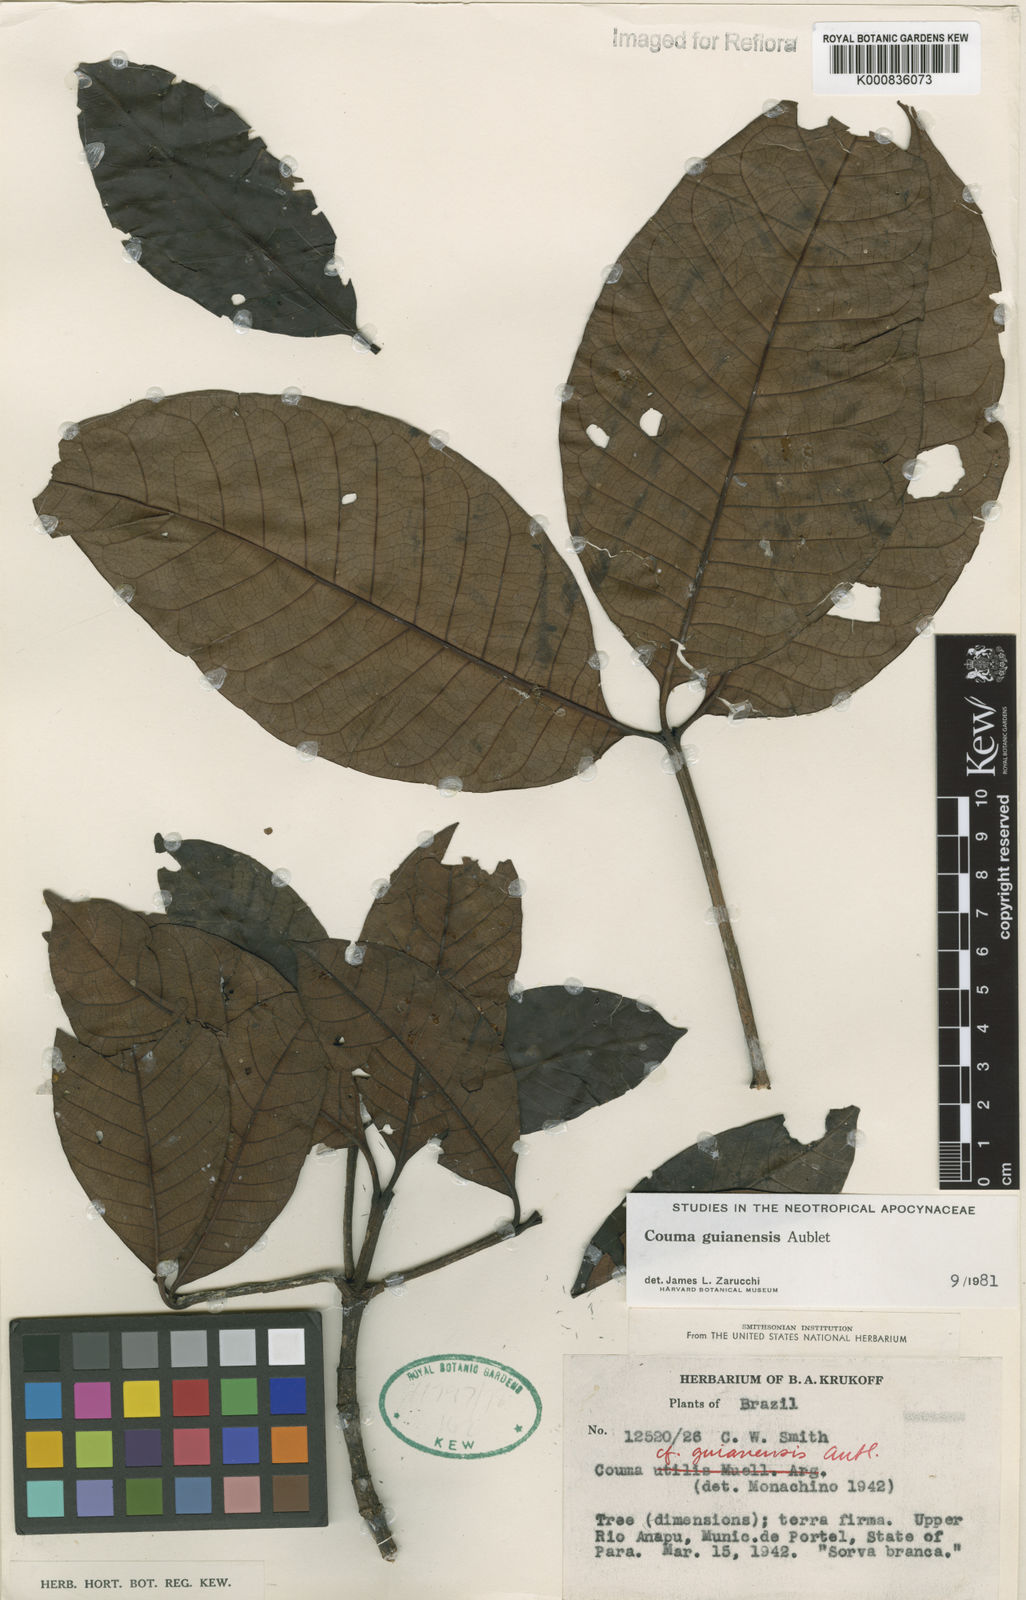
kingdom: Plantae
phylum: Tracheophyta
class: Magnoliopsida
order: Gentianales
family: Apocynaceae
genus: Couma
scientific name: Couma guianensis
